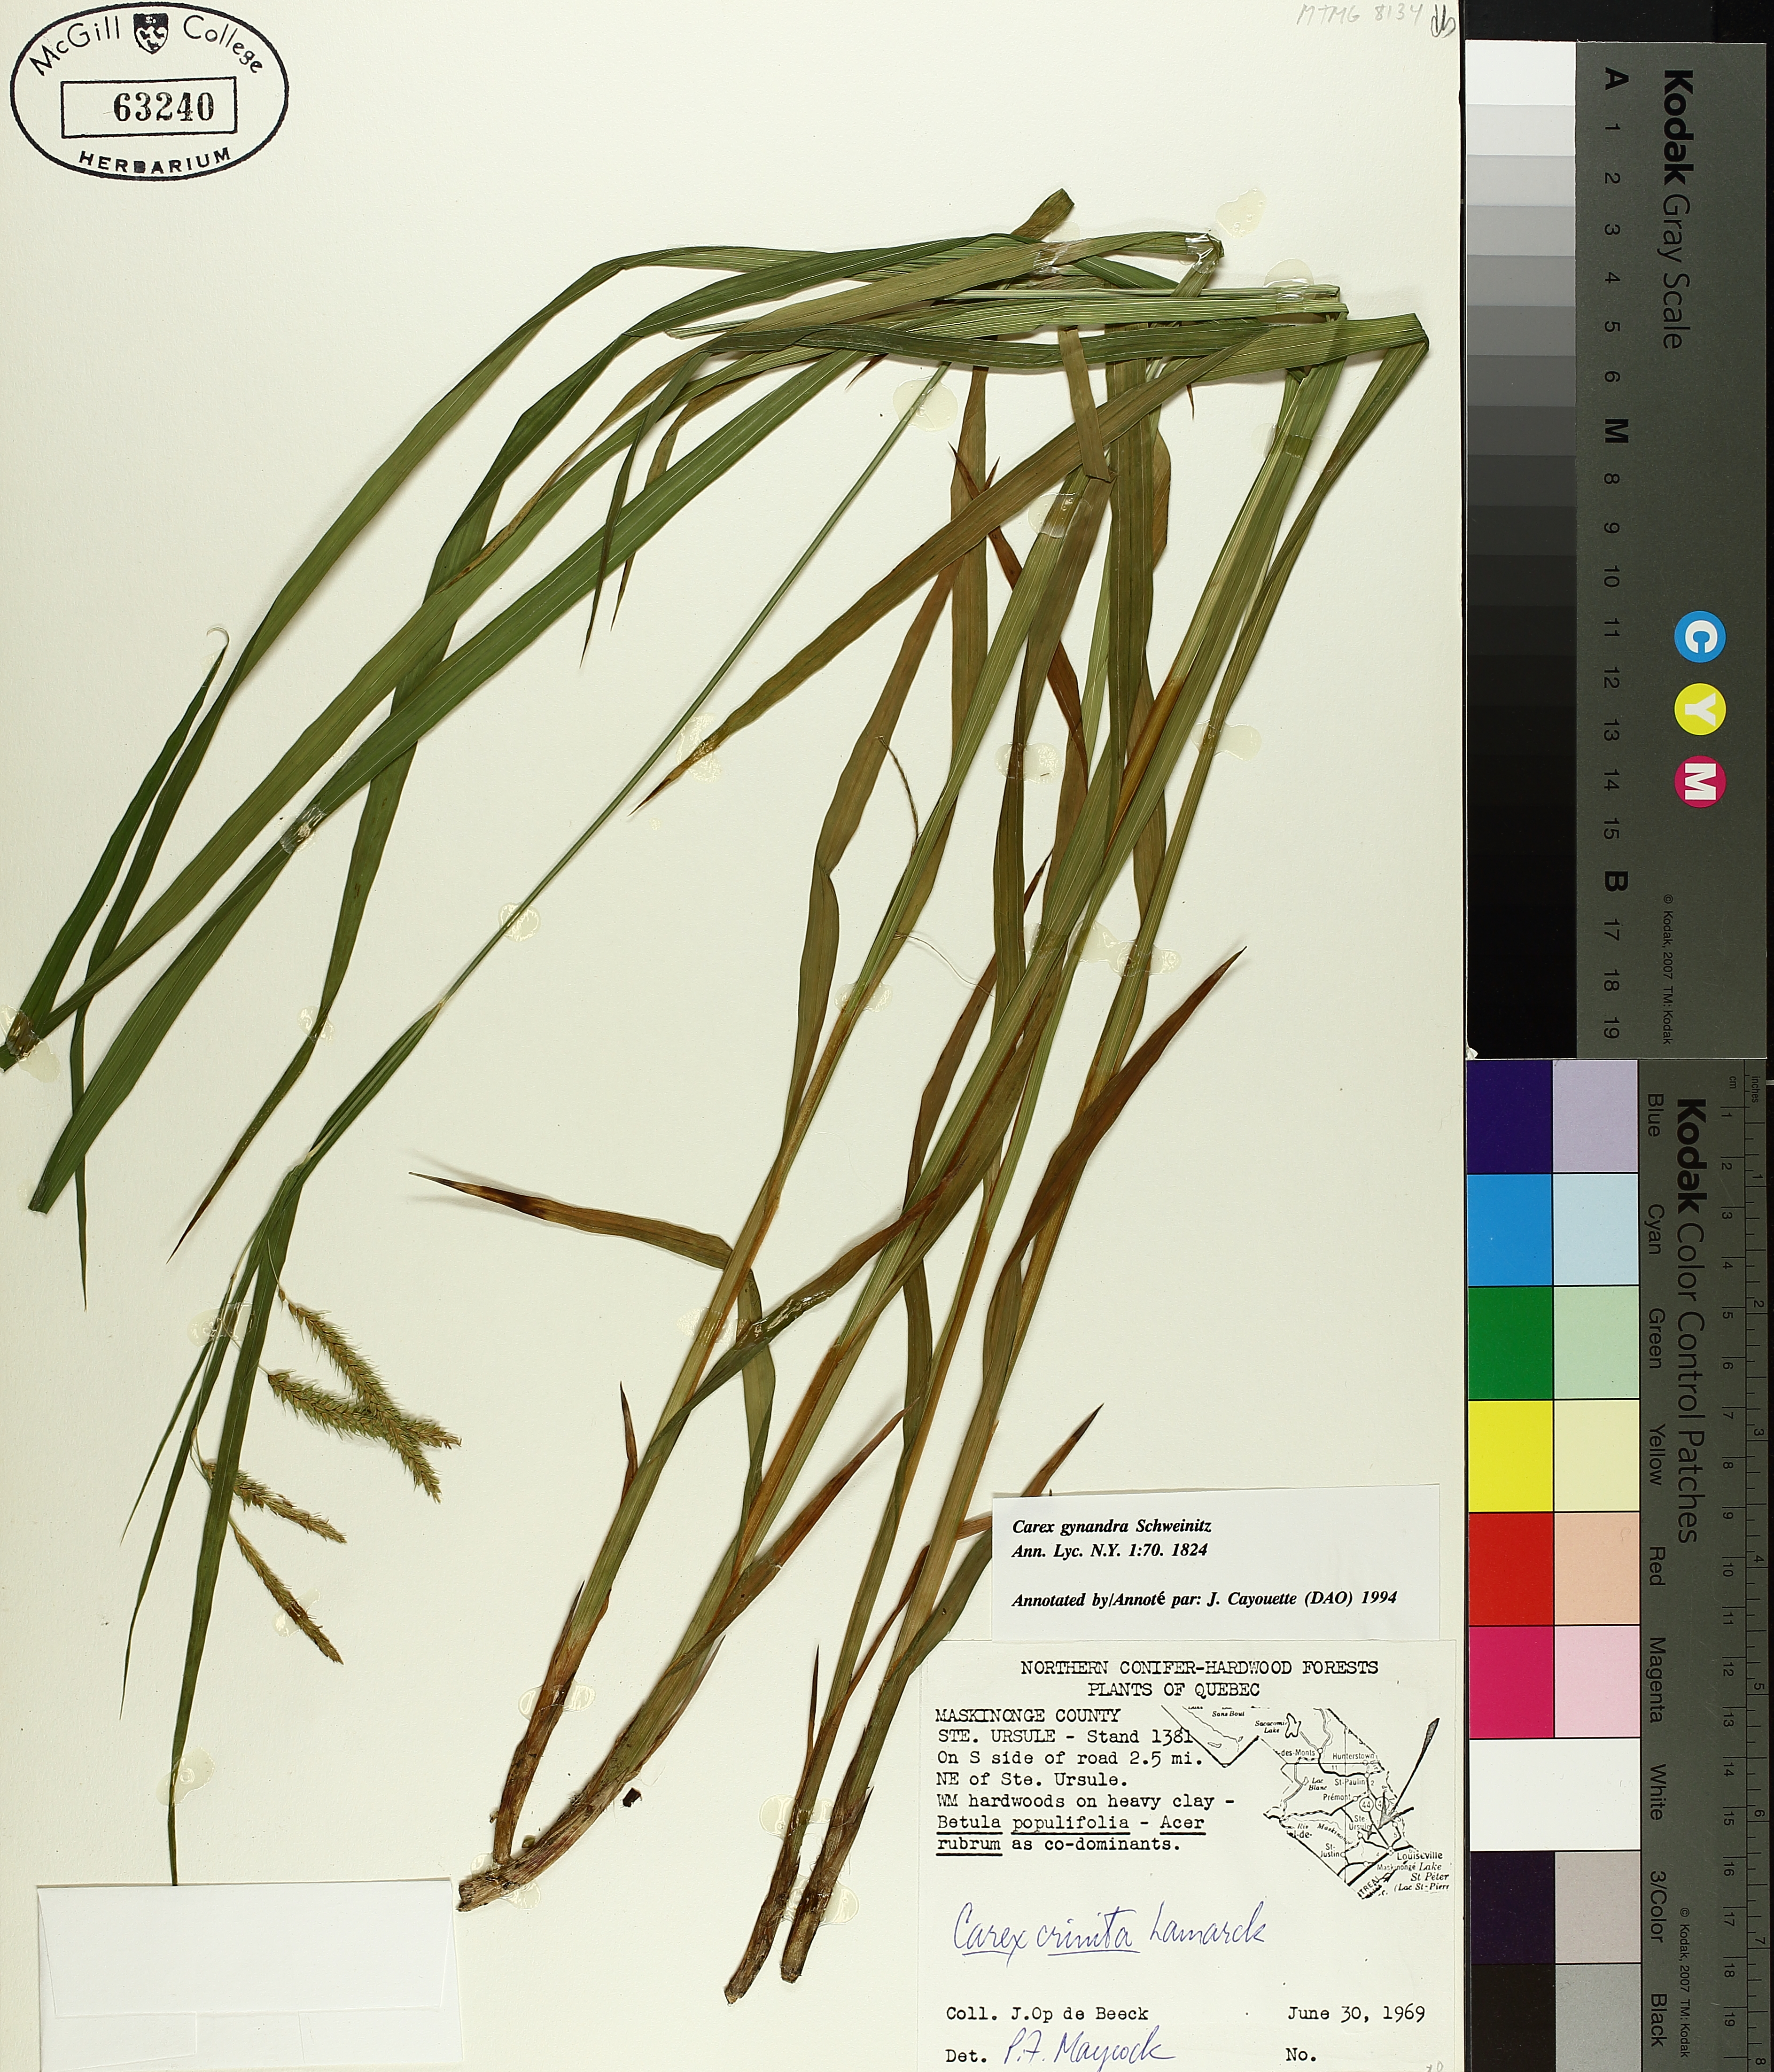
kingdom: Plantae
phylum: Tracheophyta
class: Liliopsida
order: Poales
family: Cyperaceae
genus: Carex
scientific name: Carex gynandra
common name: Nodding sedge
